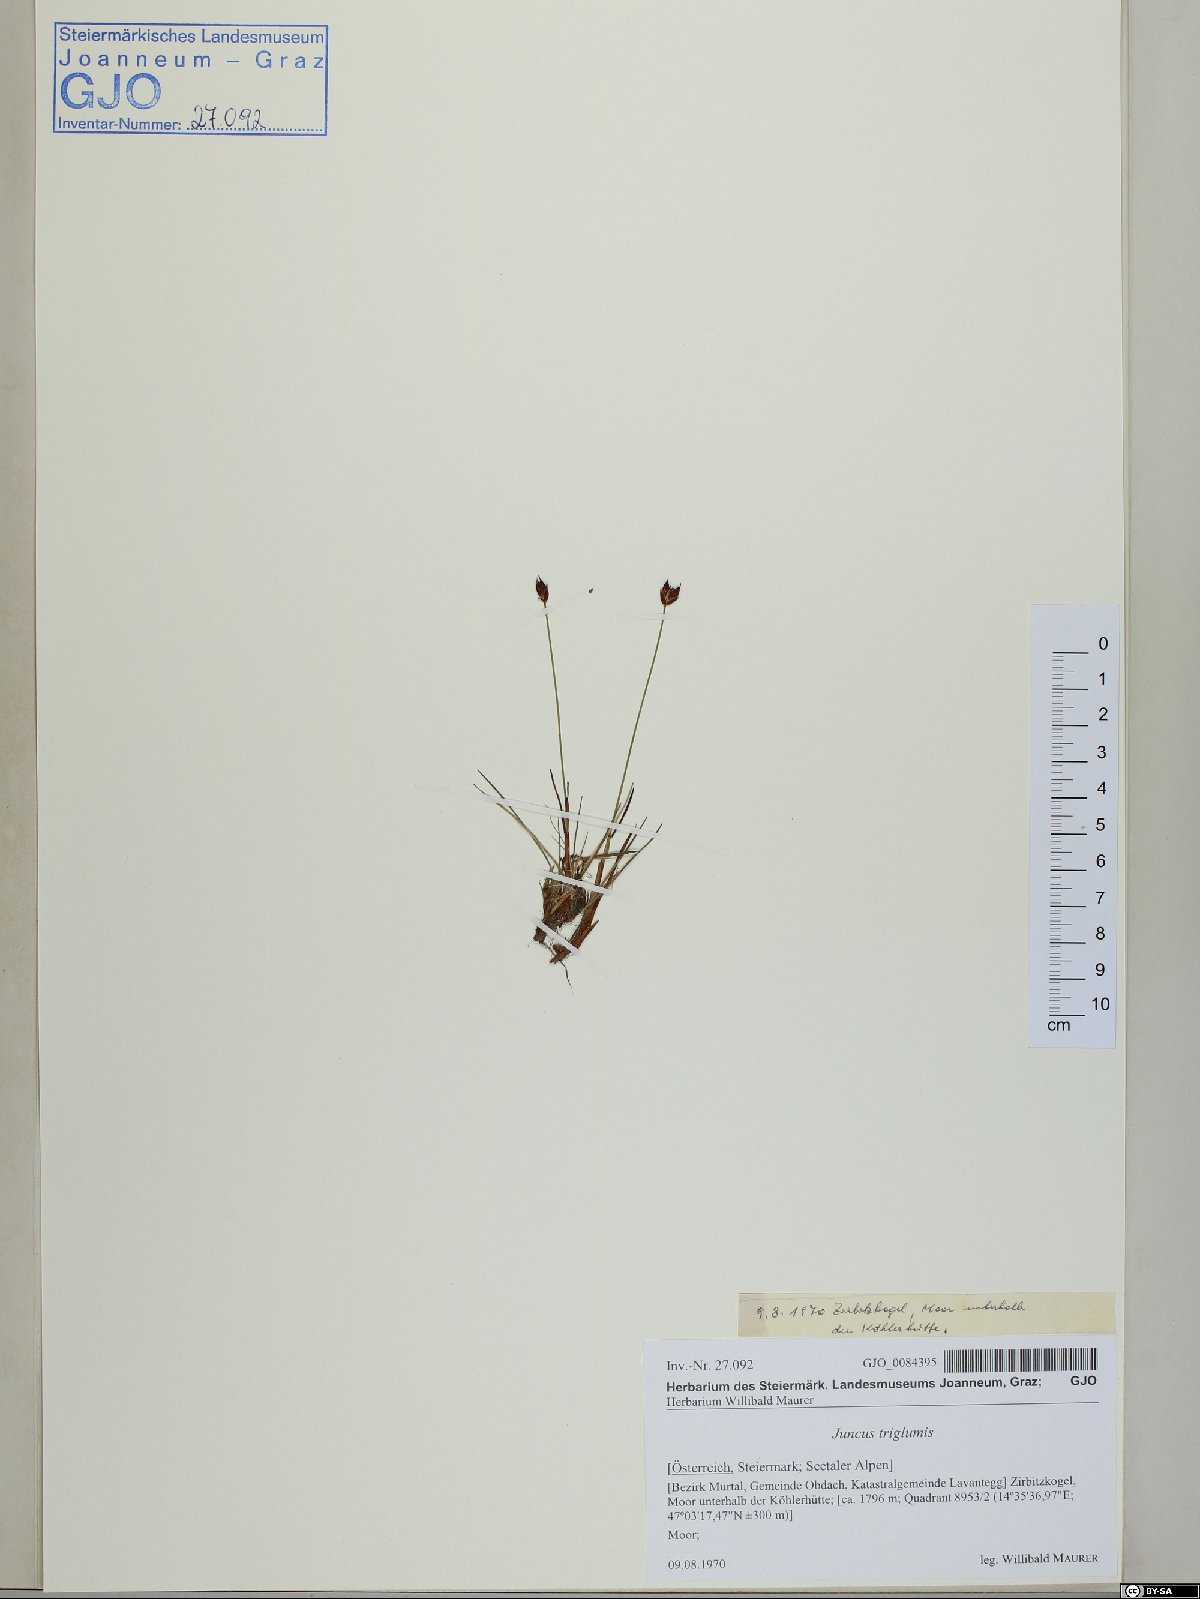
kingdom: Plantae
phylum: Tracheophyta
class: Liliopsida
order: Poales
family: Juncaceae
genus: Juncus
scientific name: Juncus triglumis
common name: Three-flowered rush
